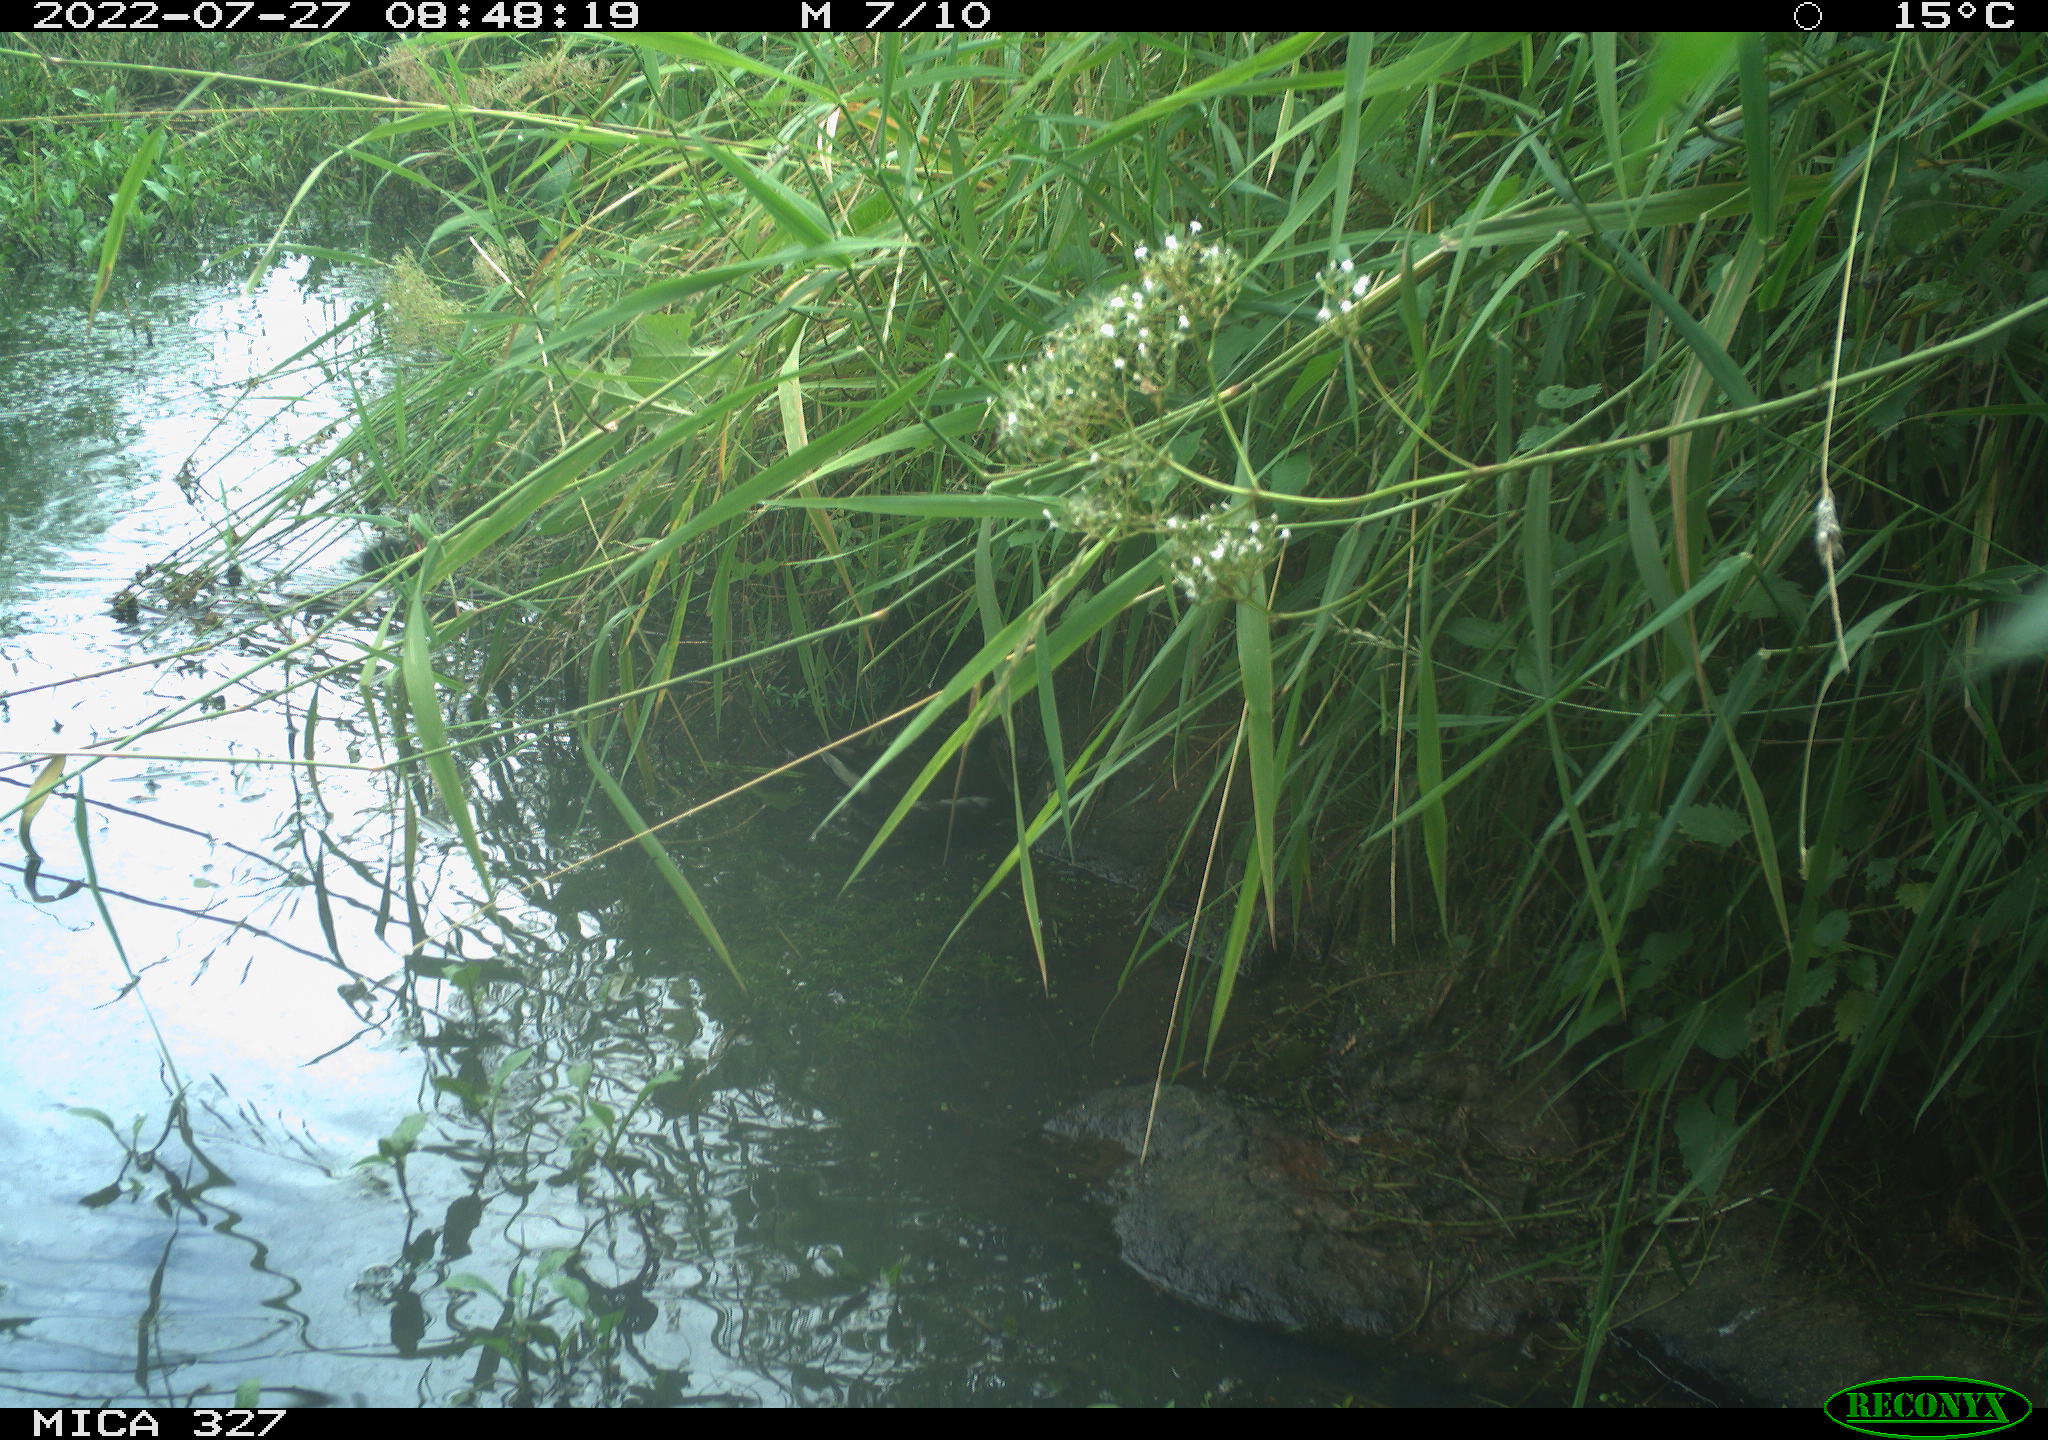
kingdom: Animalia
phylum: Chordata
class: Aves
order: Gruiformes
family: Rallidae
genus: Gallinula
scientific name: Gallinula chloropus
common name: Common moorhen
